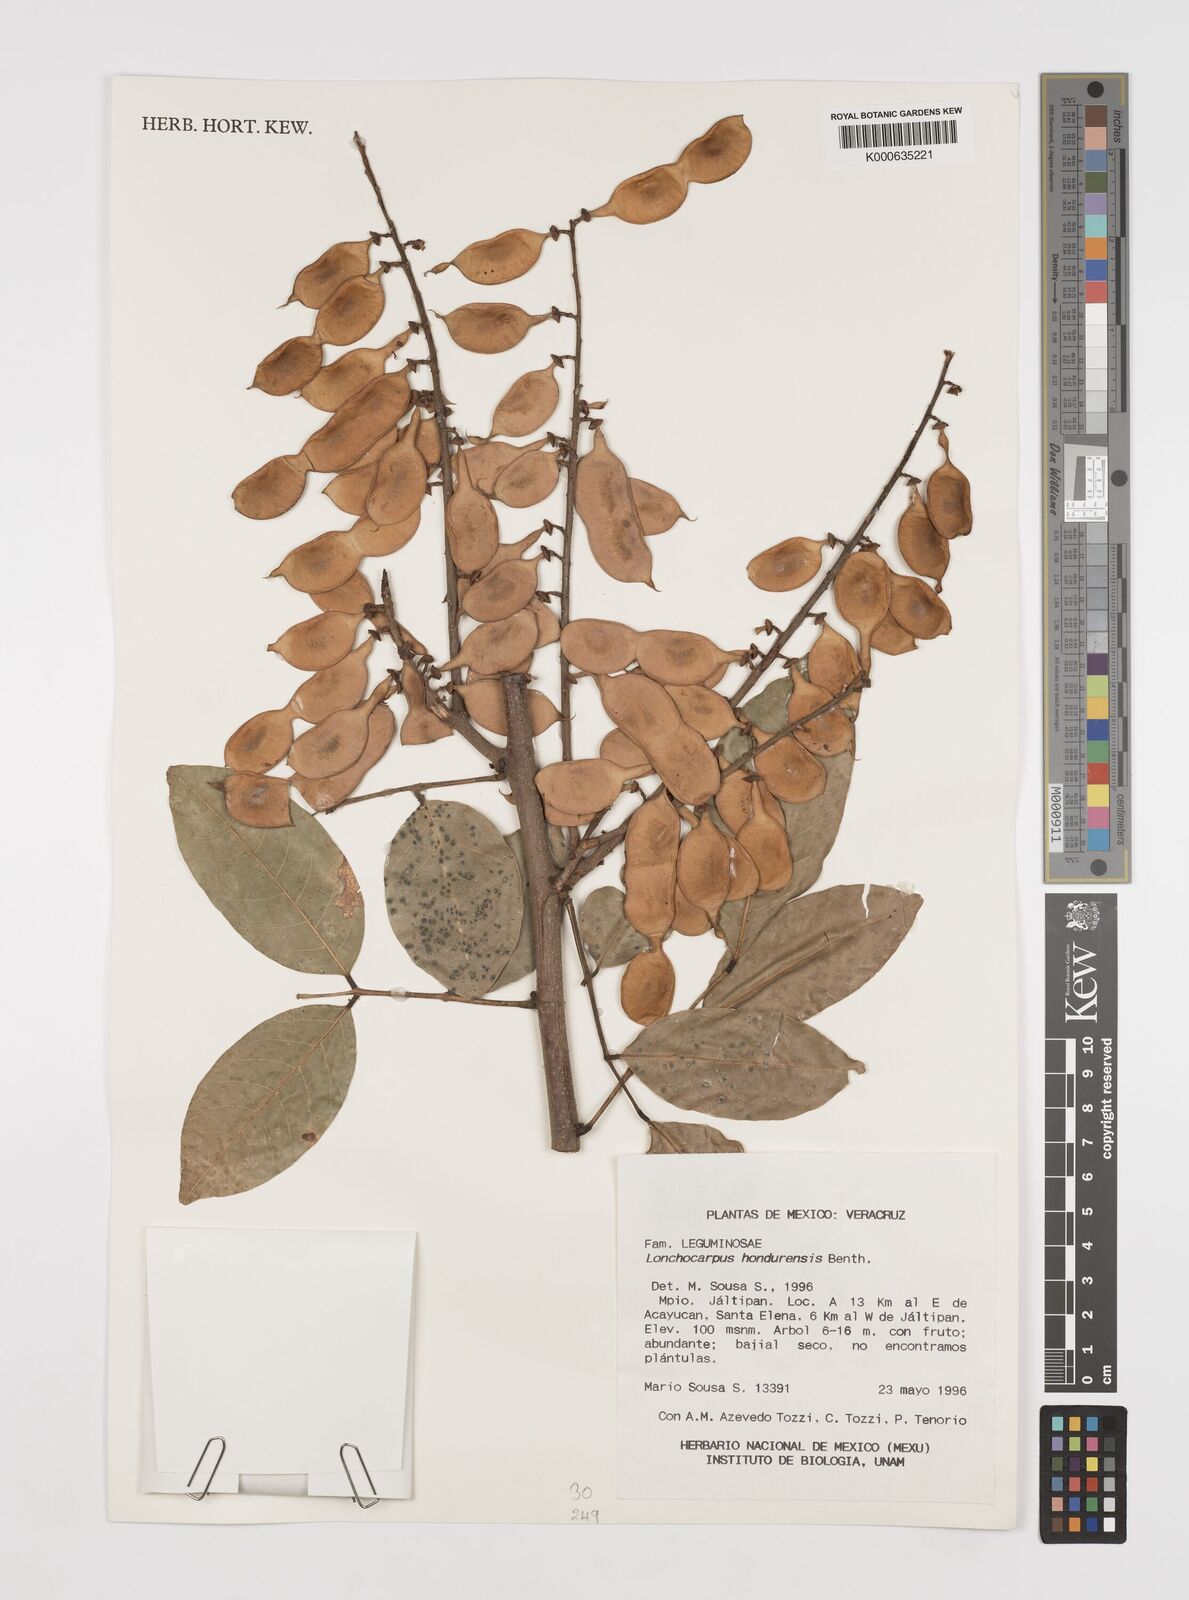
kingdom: Plantae
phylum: Tracheophyta
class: Magnoliopsida
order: Fabales
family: Fabaceae
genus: Lonchocarpus
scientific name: Lonchocarpus hondurensis
